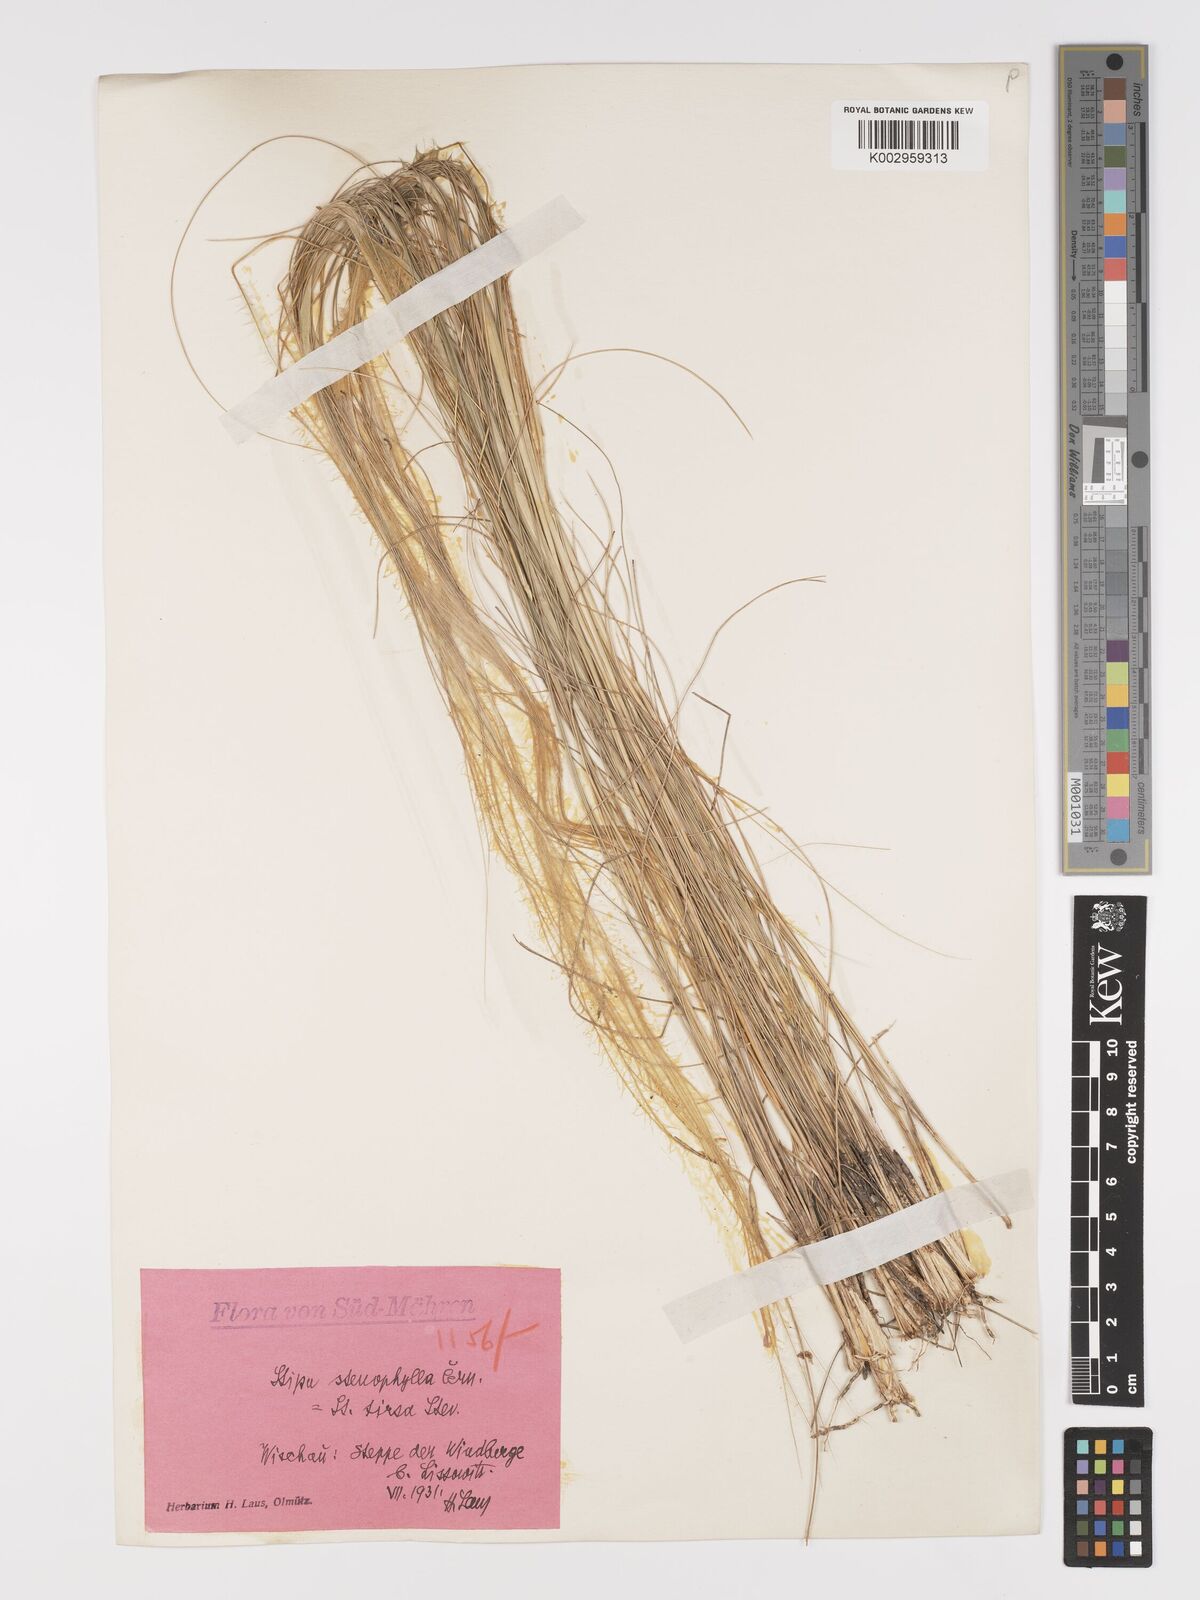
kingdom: Plantae
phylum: Tracheophyta
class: Liliopsida
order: Poales
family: Poaceae
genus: Stipa
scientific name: Stipa tirsa
